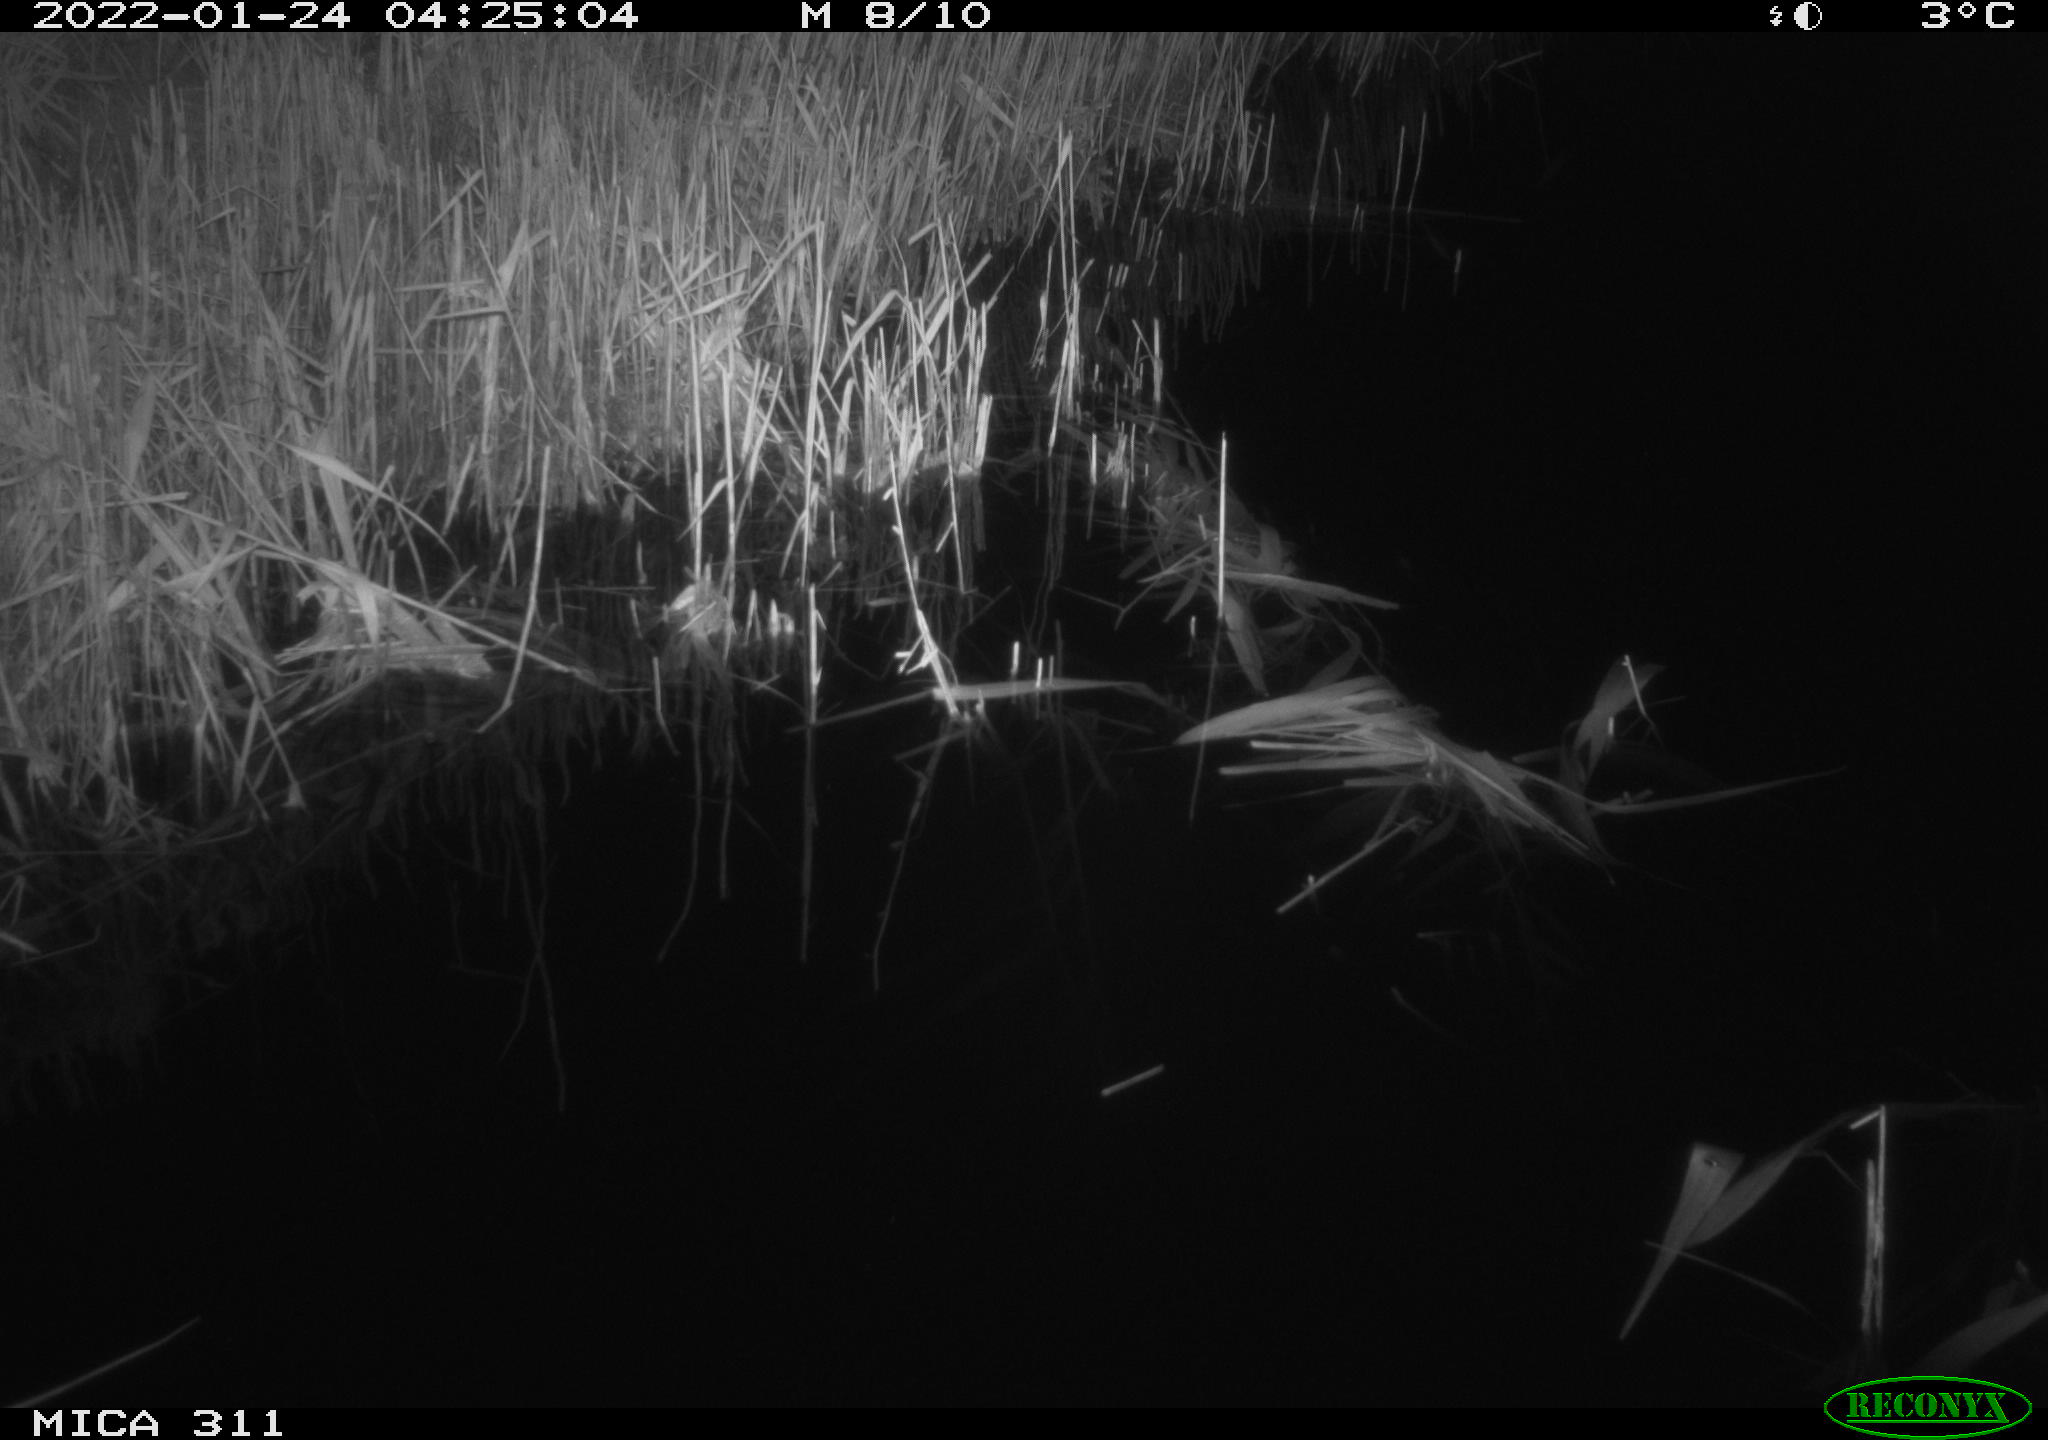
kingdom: Animalia
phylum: Chordata
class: Mammalia
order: Rodentia
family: Muridae
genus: Rattus
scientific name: Rattus norvegicus
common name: Brown rat
